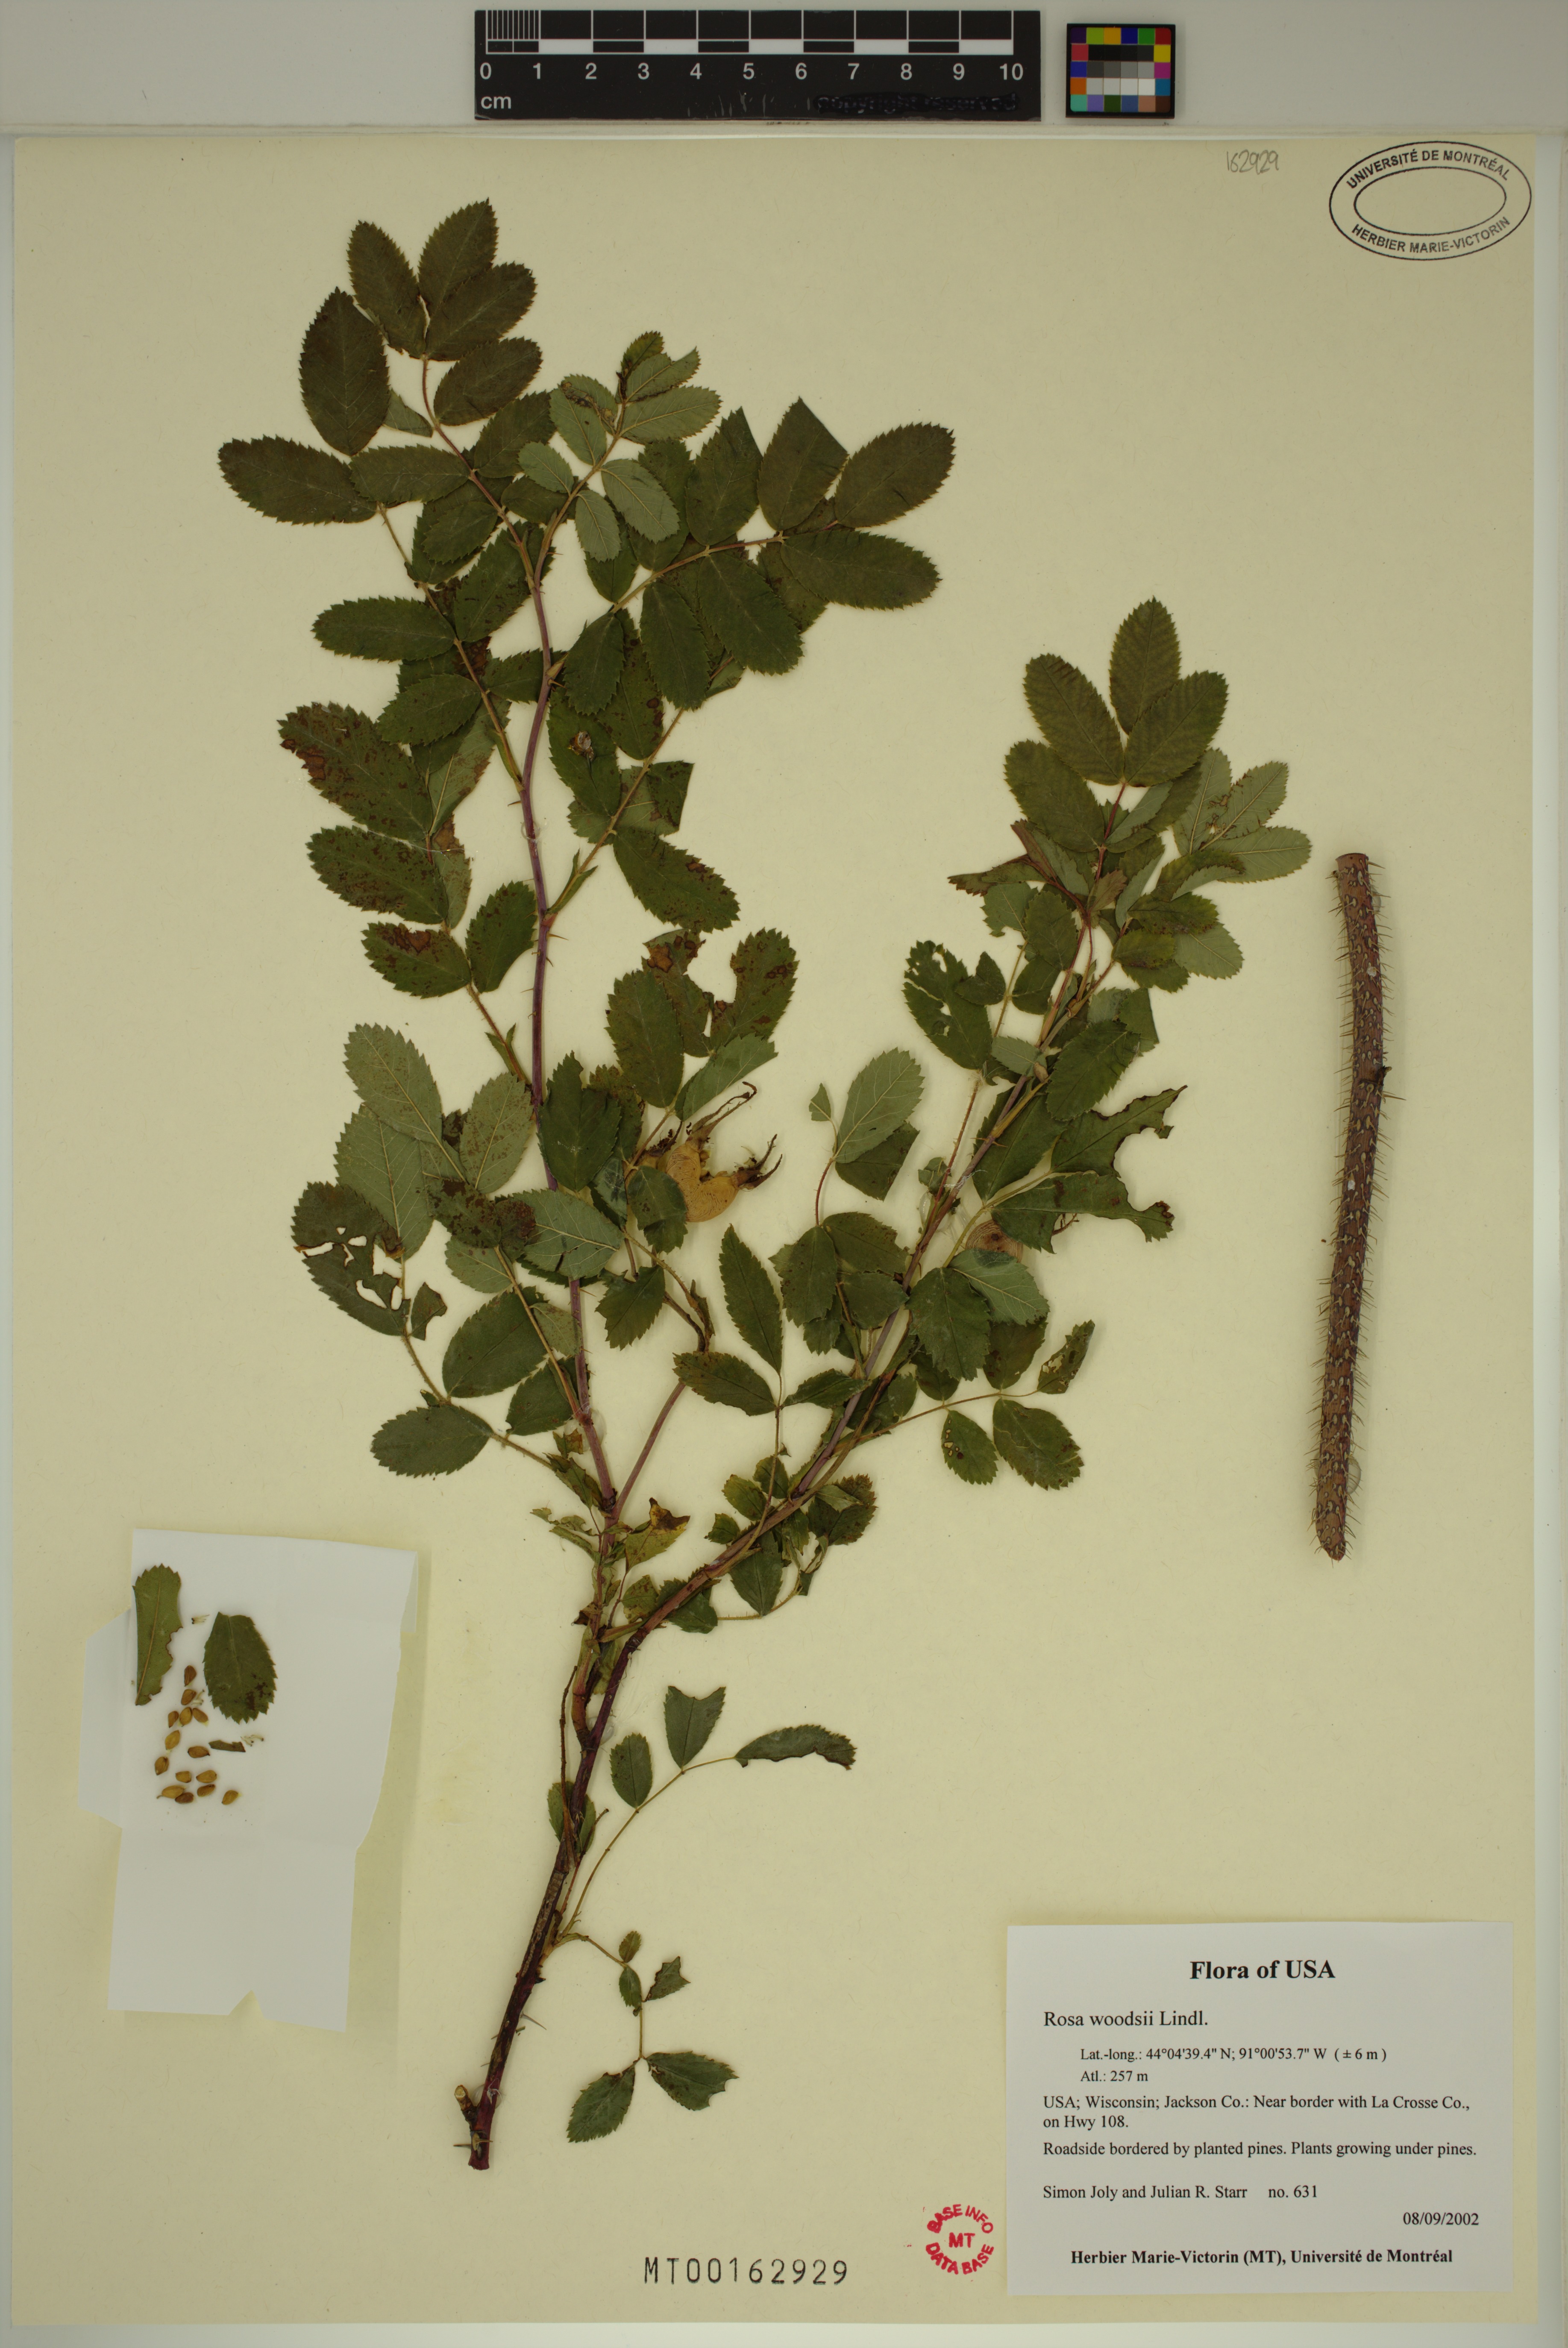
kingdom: Plantae
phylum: Tracheophyta
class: Magnoliopsida
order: Rosales
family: Rosaceae
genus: Rosa
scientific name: Rosa woodsii
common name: Woods's rose
